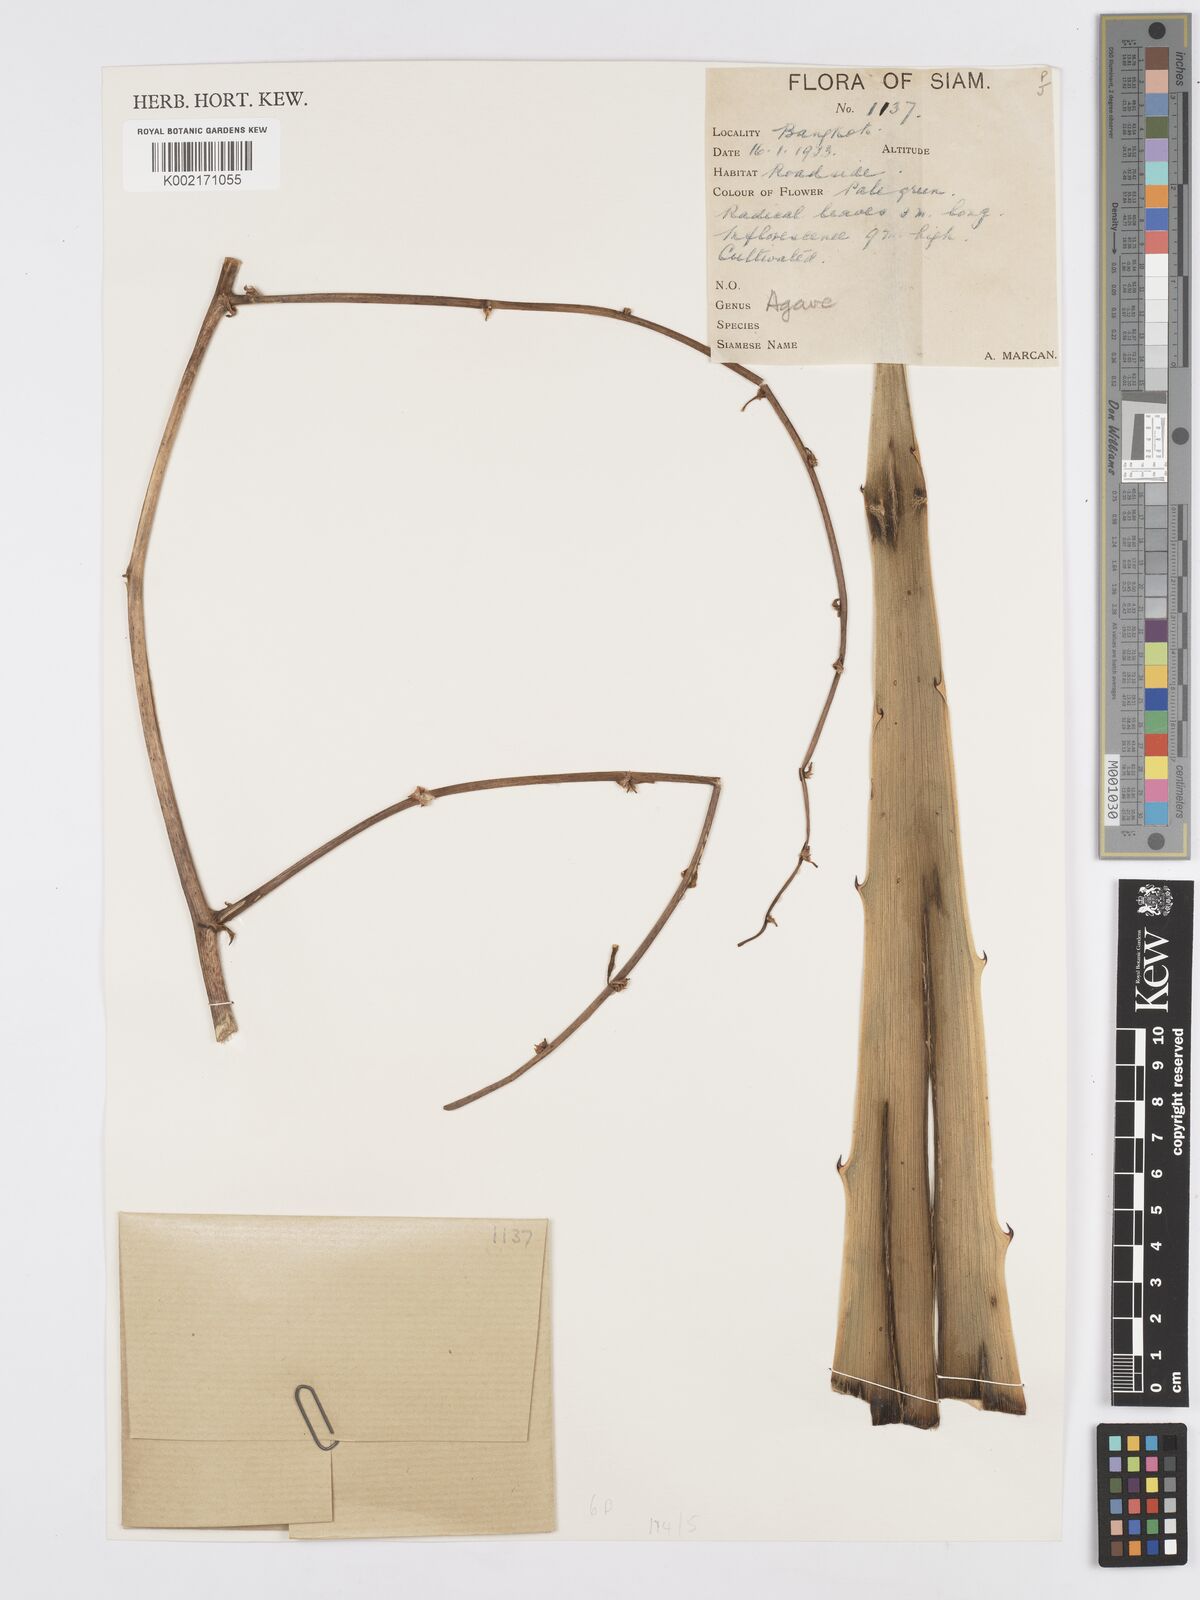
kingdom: Plantae
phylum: Tracheophyta
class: Liliopsida
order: Asparagales
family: Asparagaceae
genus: Agave
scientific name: Agave
